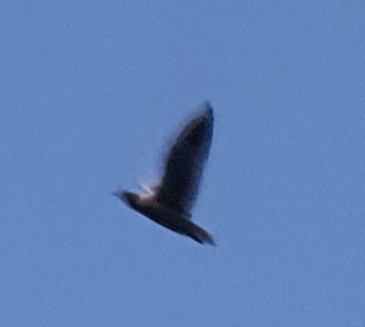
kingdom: Animalia
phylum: Chordata
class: Aves
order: Charadriiformes
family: Laridae
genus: Chroicocephalus
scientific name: Chroicocephalus ridibundus
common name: Hættemåge
